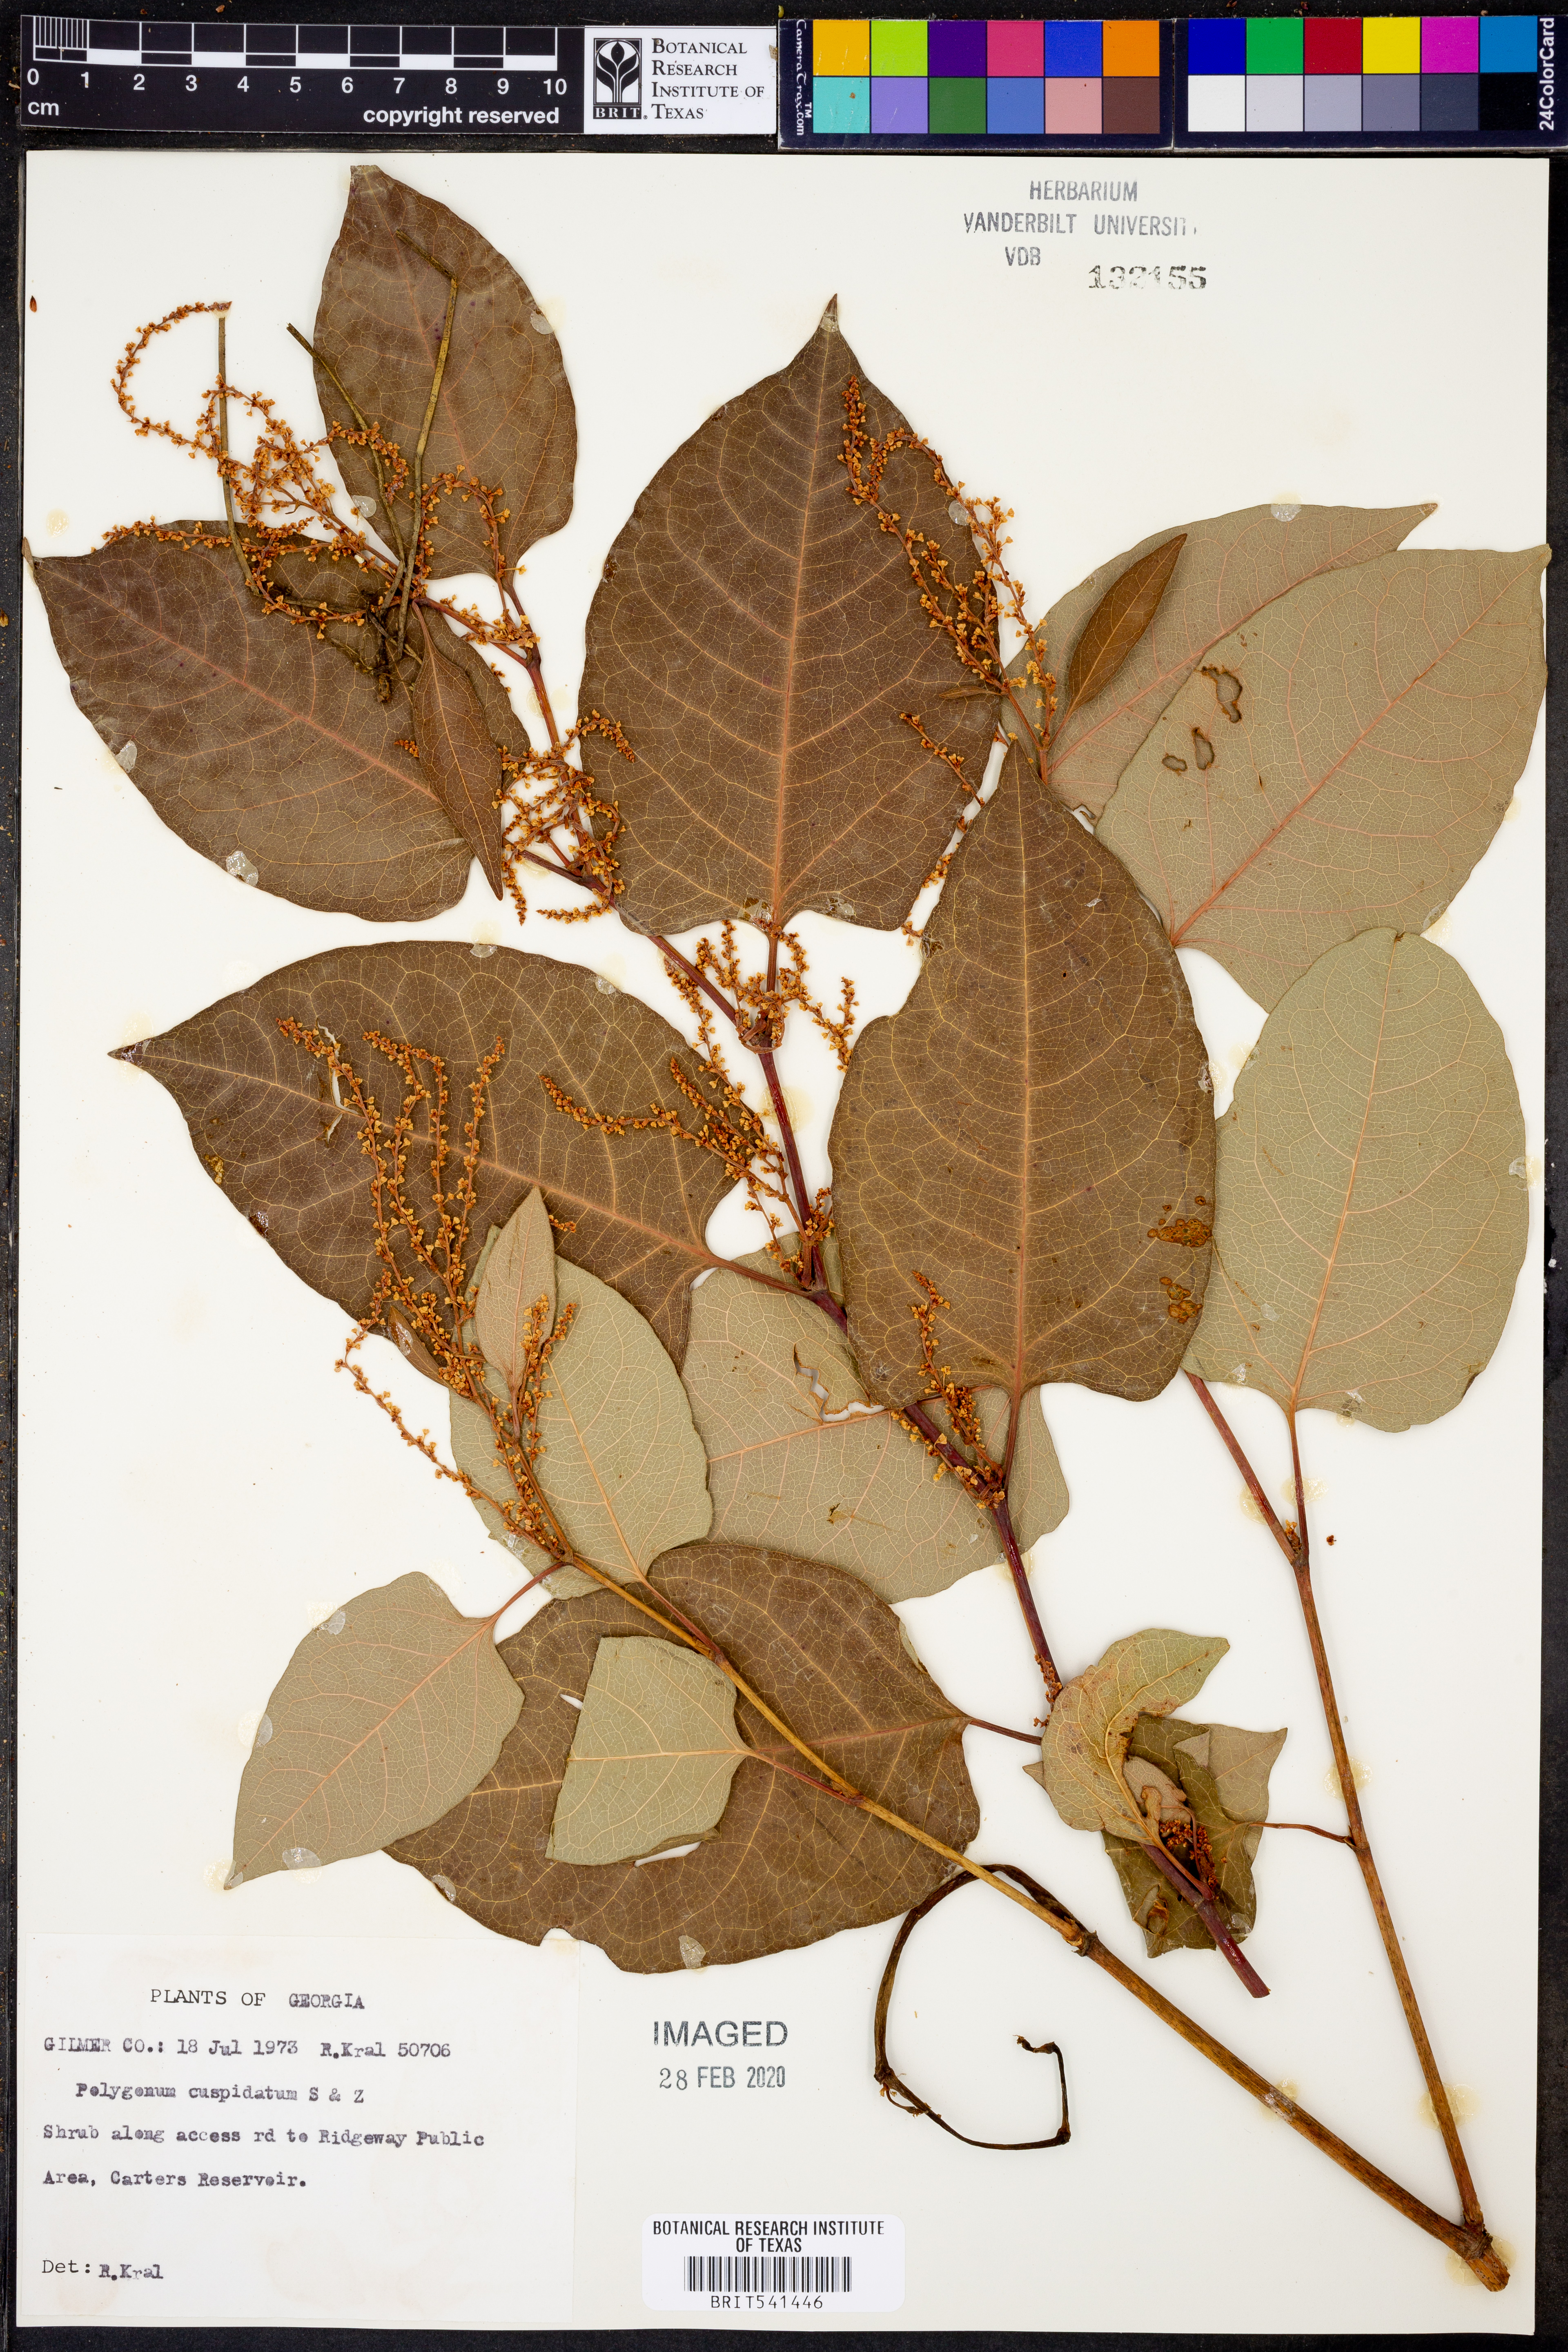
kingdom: Plantae
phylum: Tracheophyta
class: Magnoliopsida
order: Caryophyllales
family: Polygonaceae
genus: Reynoutria
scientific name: Reynoutria japonica
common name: Japanese knotweed
